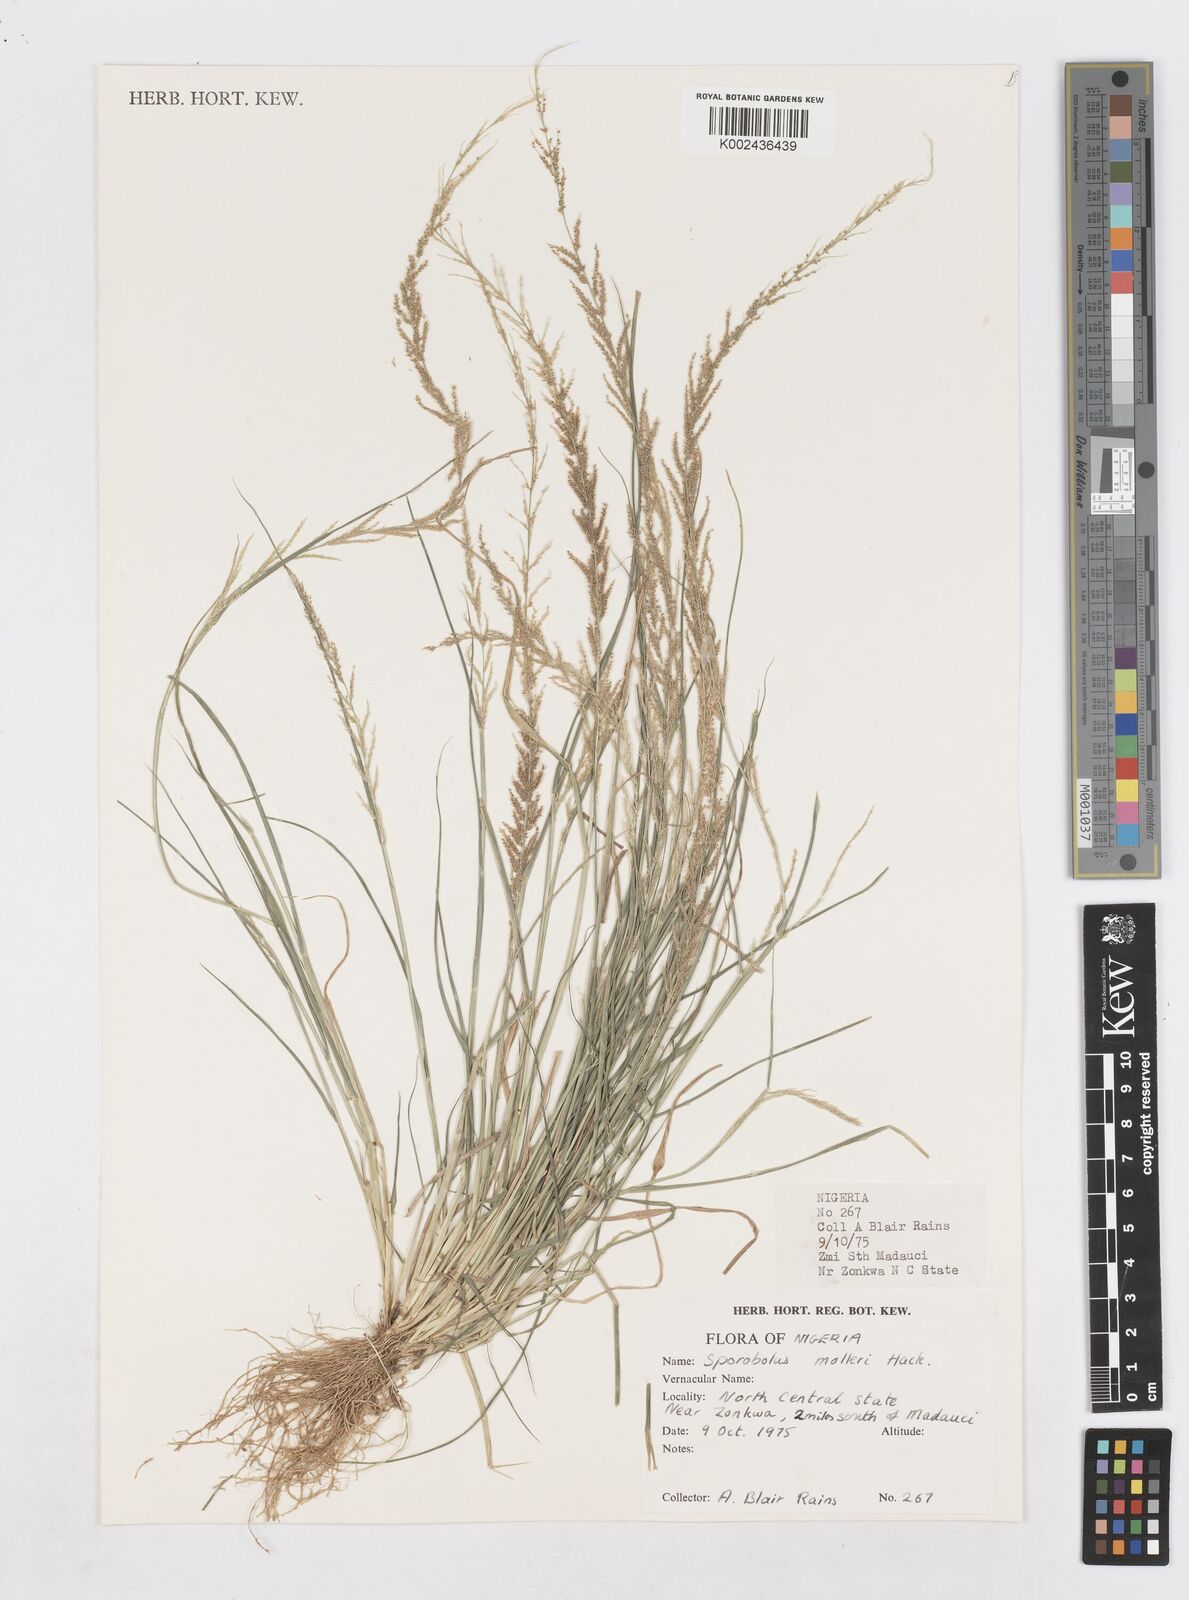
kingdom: Plantae
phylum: Tracheophyta
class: Liliopsida
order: Poales
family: Poaceae
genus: Sporobolus
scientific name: Sporobolus molleri
